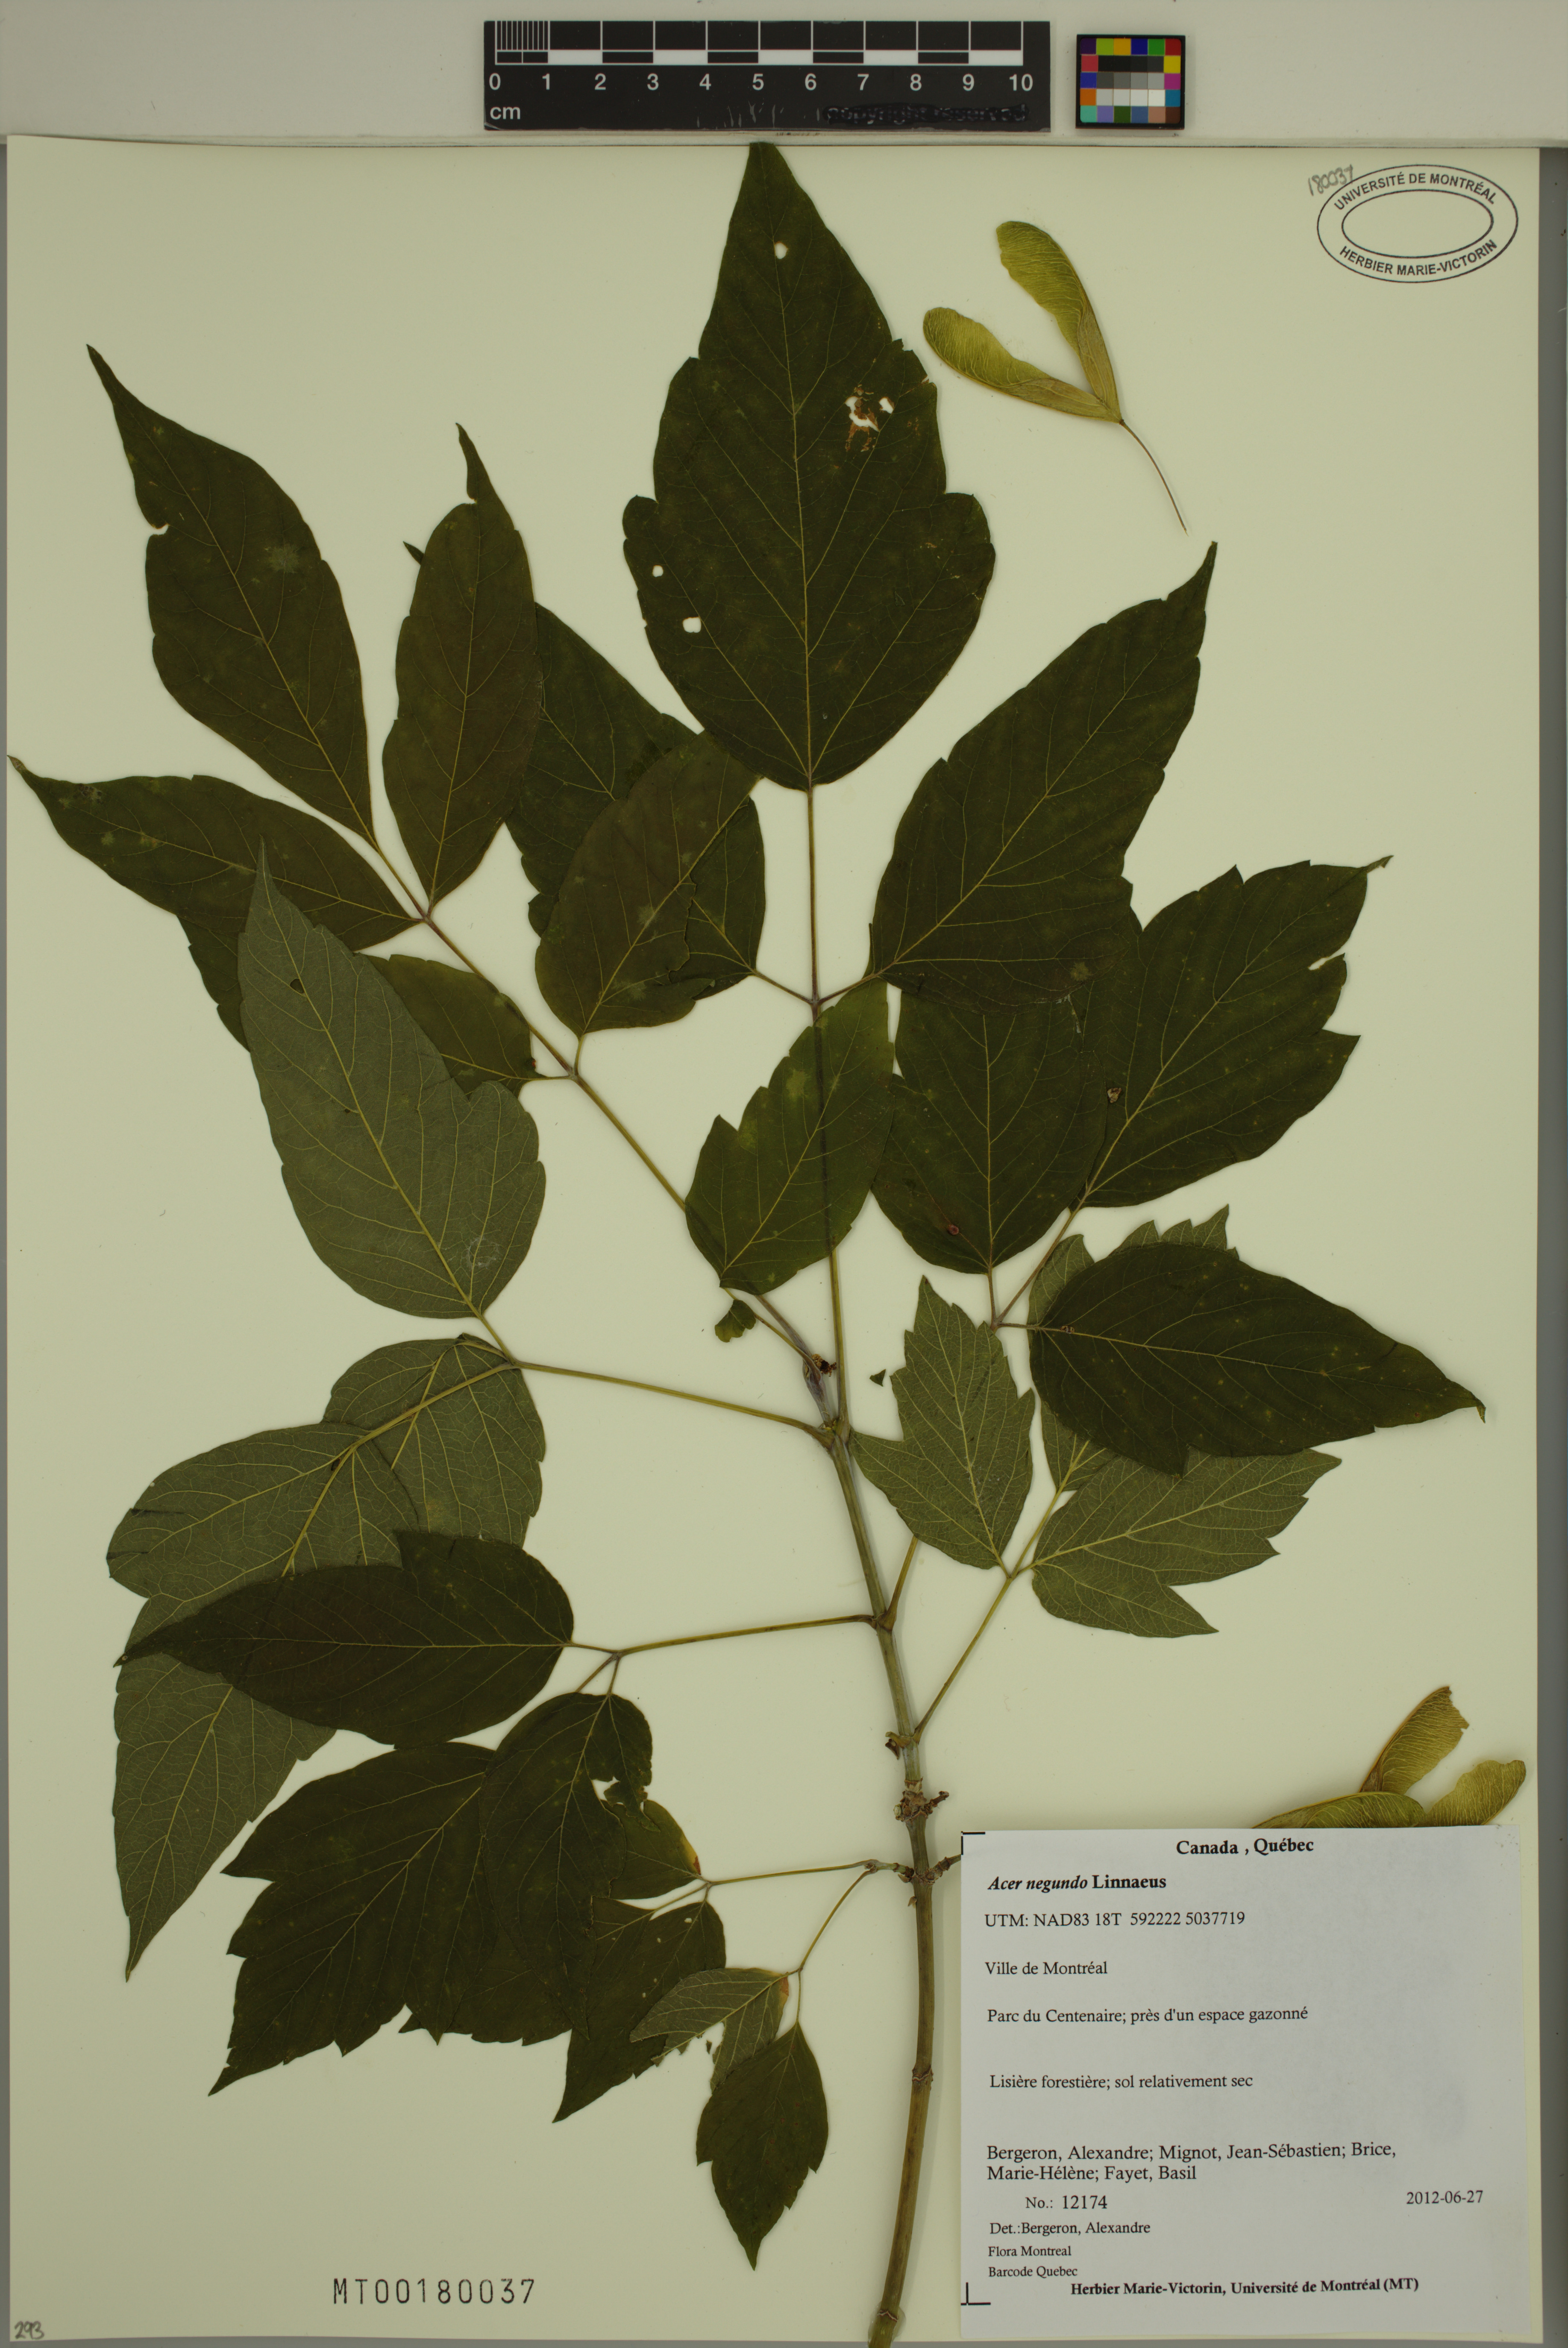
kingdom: Plantae
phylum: Tracheophyta
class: Magnoliopsida
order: Sapindales
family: Sapindaceae
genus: Acer
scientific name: Acer negundo
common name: Ashleaf maple
